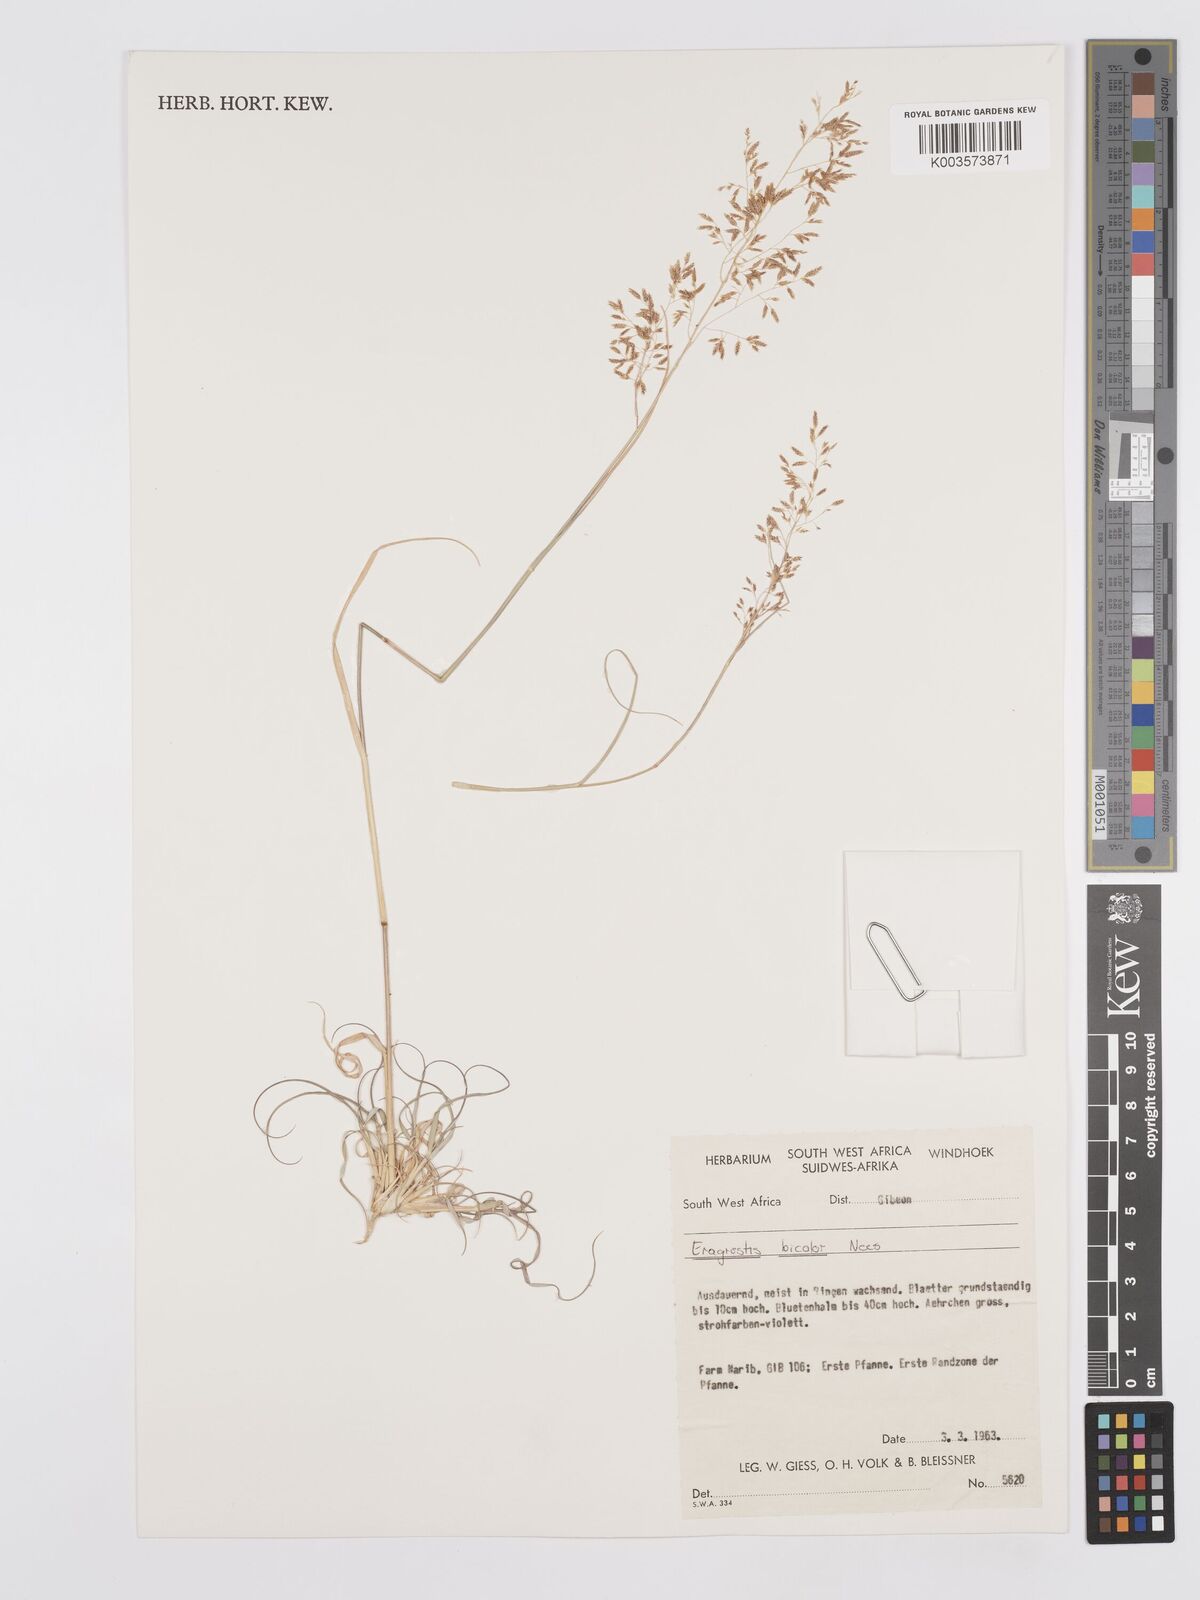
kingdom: Plantae
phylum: Tracheophyta
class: Liliopsida
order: Poales
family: Poaceae
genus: Eragrostis
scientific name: Eragrostis
